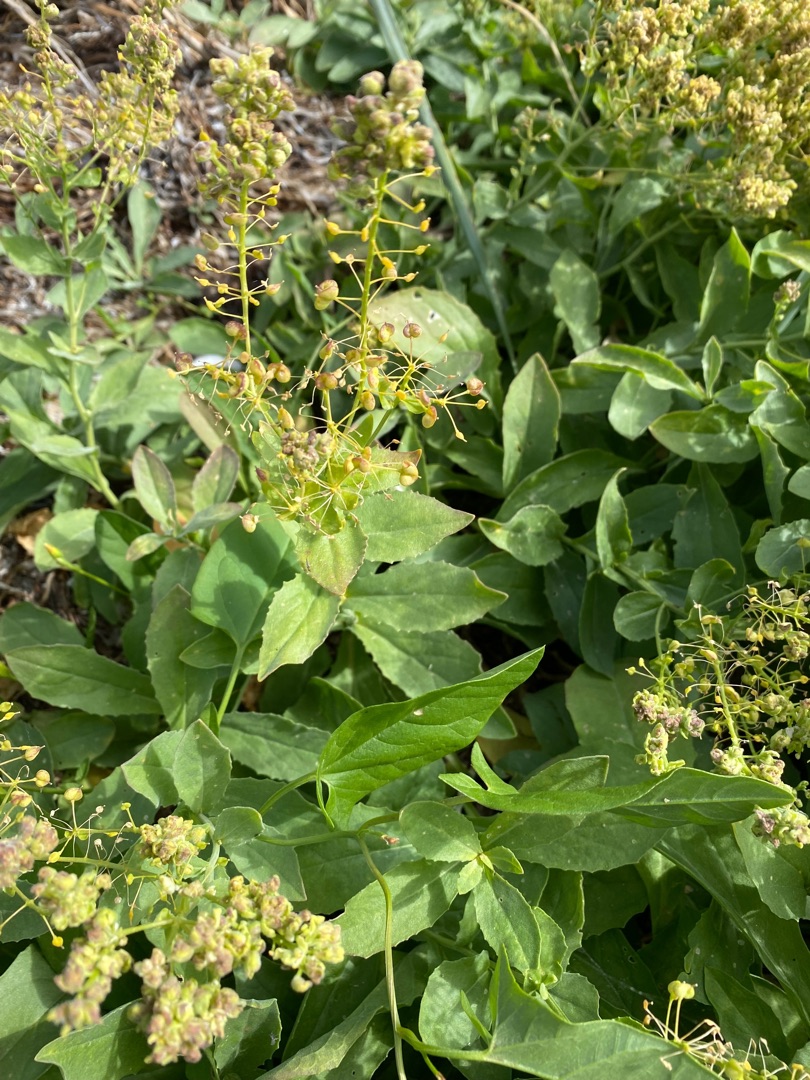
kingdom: Plantae
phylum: Tracheophyta
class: Magnoliopsida
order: Brassicales
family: Brassicaceae
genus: Lepidium
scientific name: Lepidium draba
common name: Hjerte-karse
